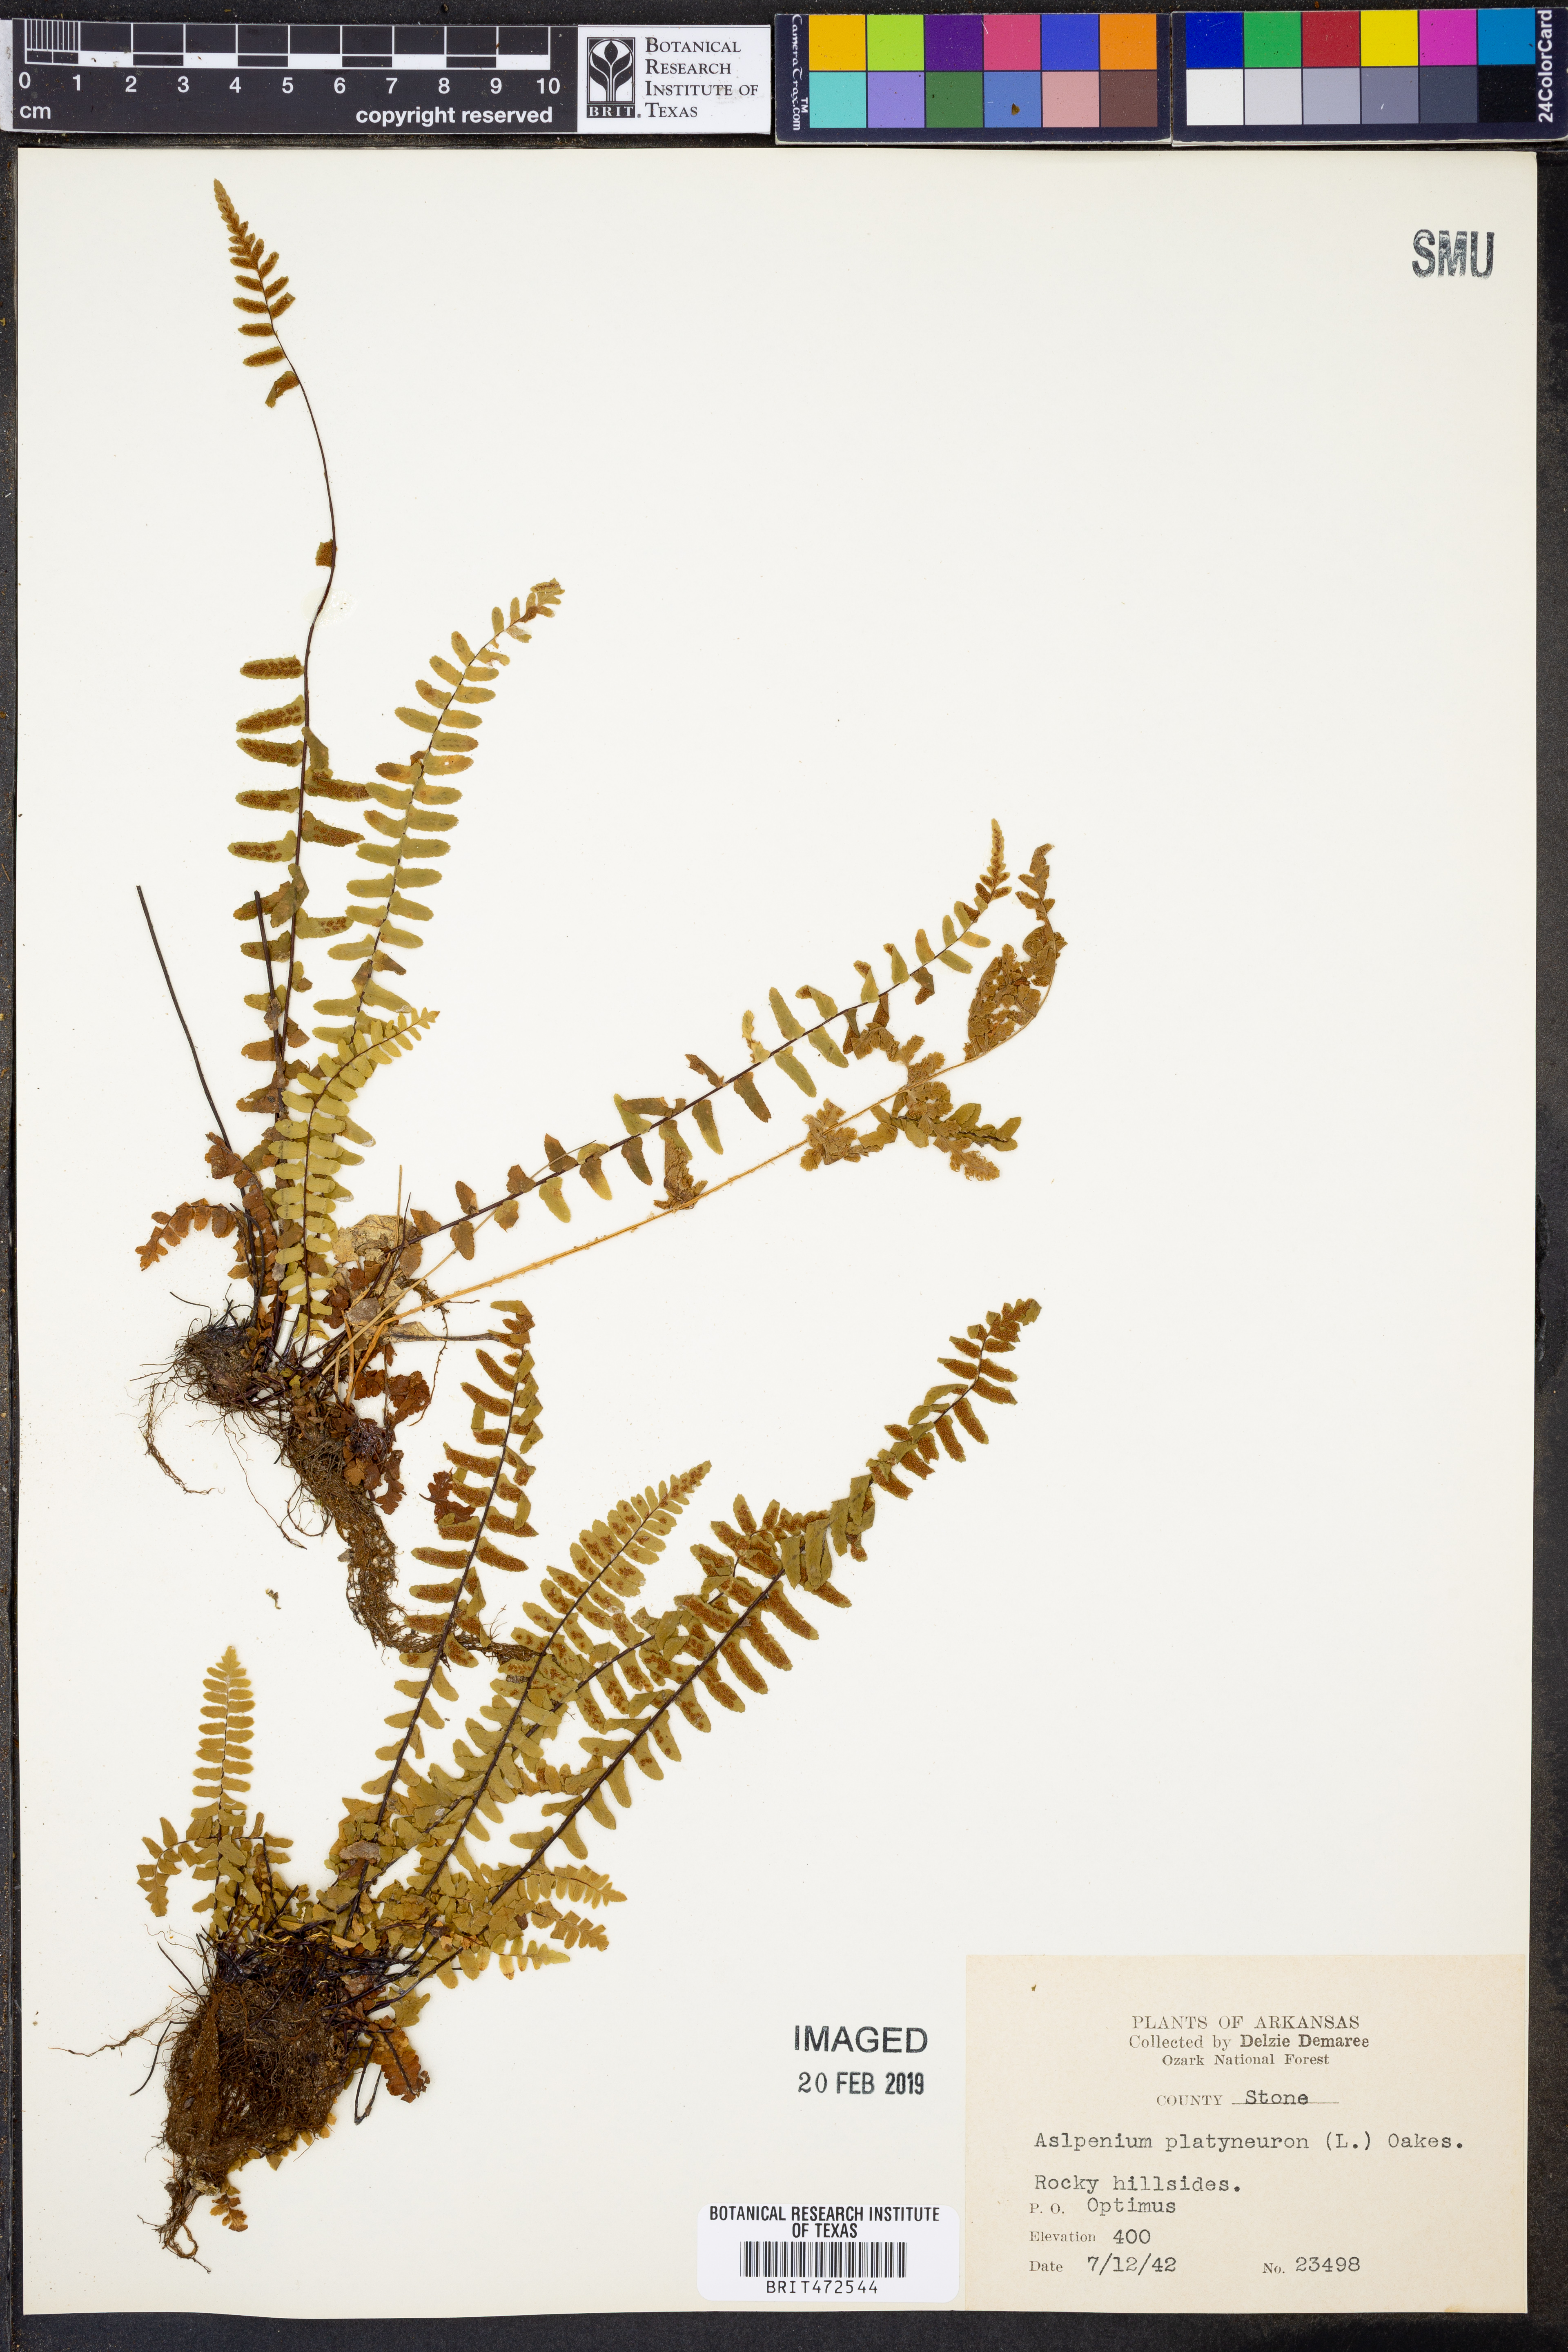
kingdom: Plantae
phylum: Tracheophyta
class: Polypodiopsida
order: Polypodiales
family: Aspleniaceae
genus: Asplenium
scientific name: Asplenium platyneuron
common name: Ebony spleenwort
